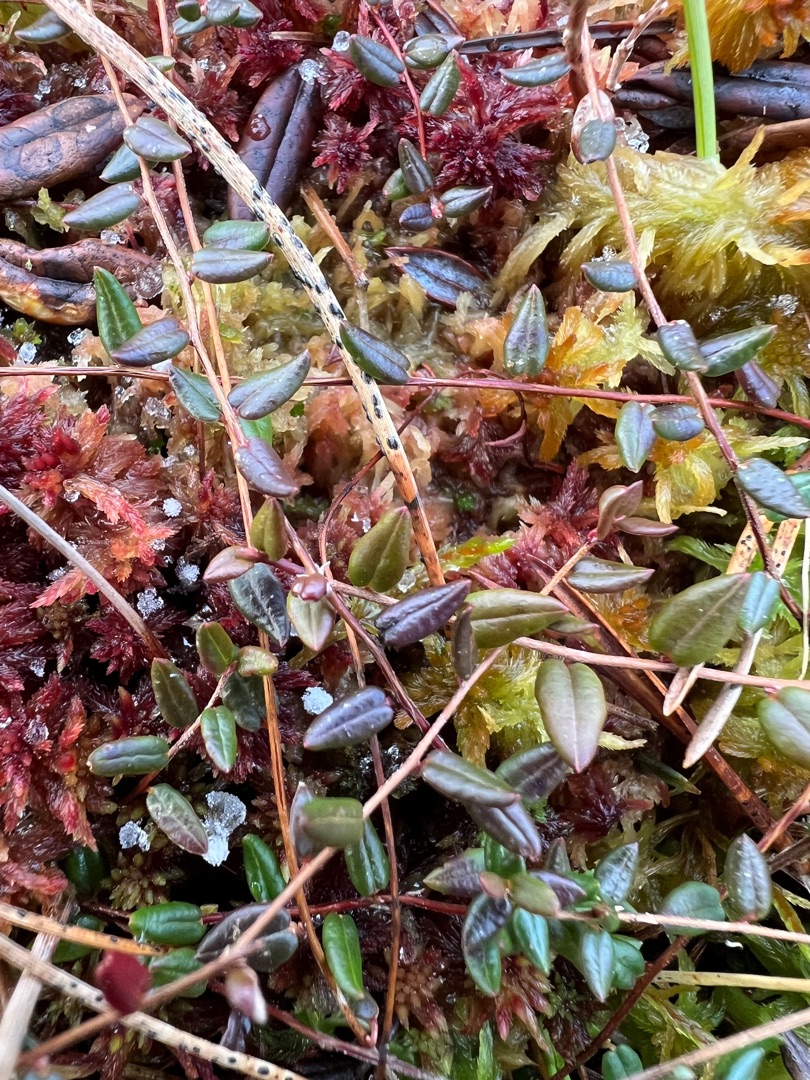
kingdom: Plantae
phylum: Tracheophyta
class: Magnoliopsida
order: Ericales
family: Ericaceae
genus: Vaccinium
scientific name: Vaccinium oxycoccos
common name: Tranebær
